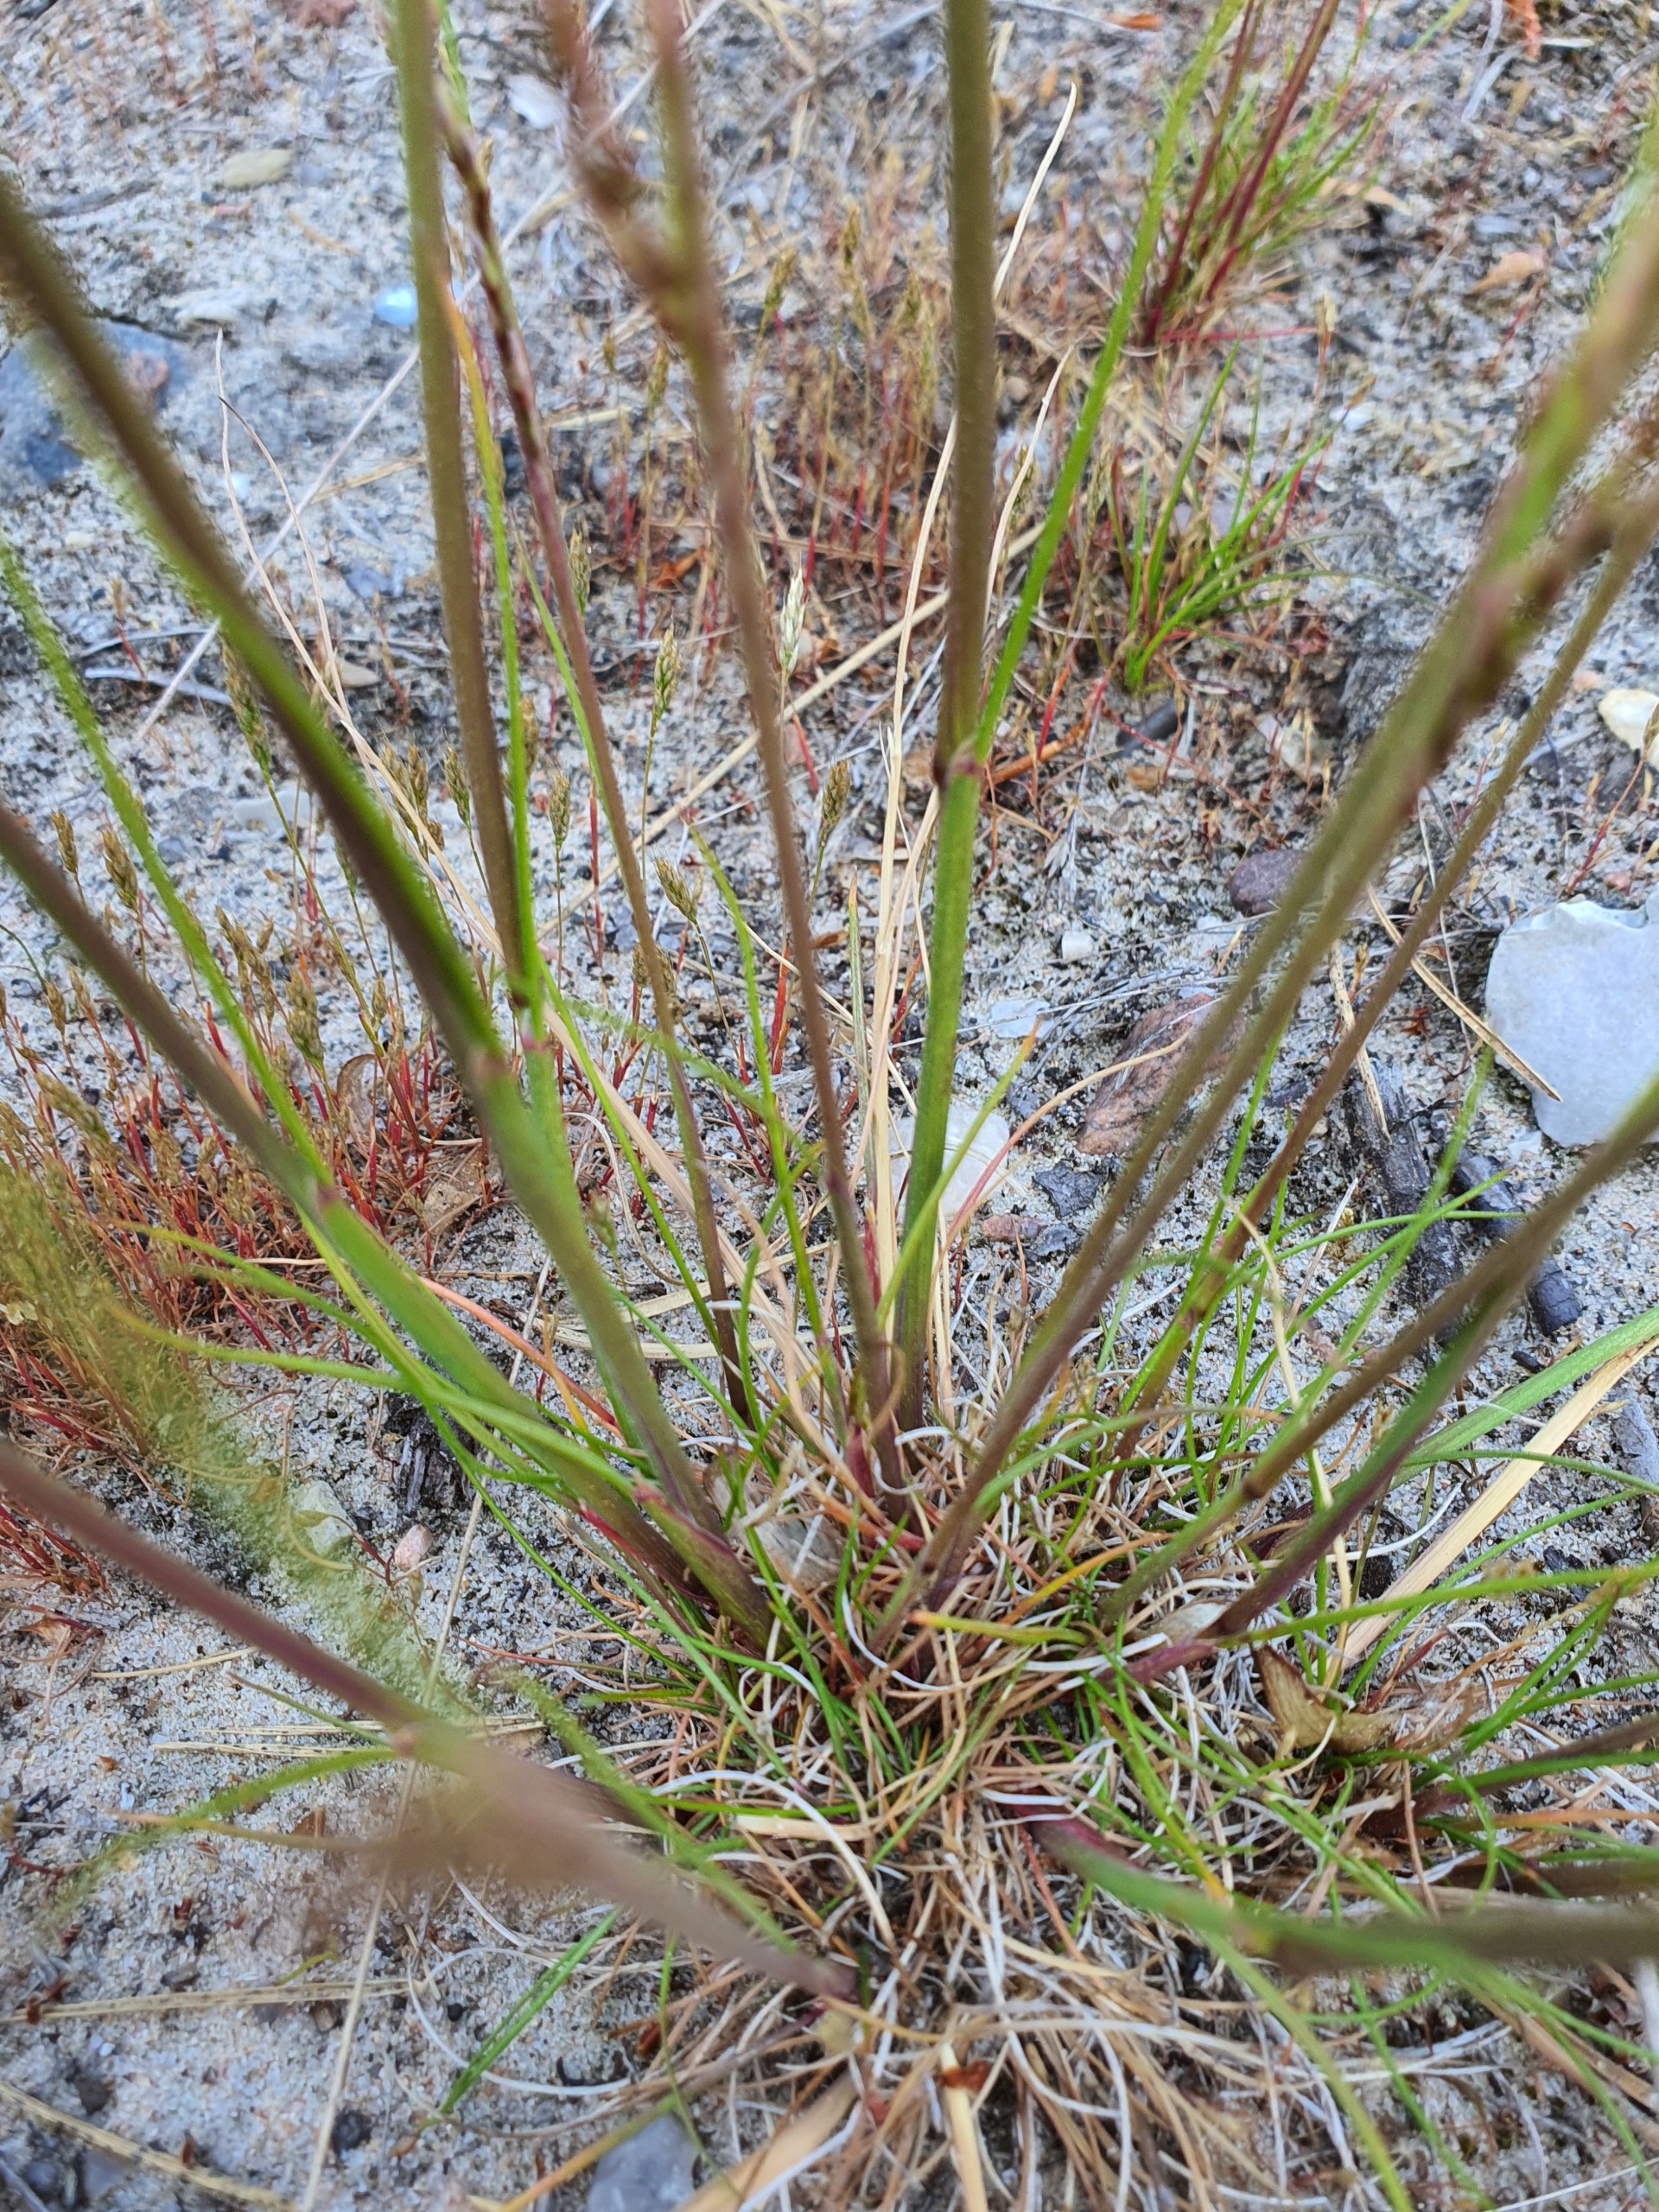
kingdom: Plantae
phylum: Tracheophyta
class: Liliopsida
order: Poales
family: Poaceae
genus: Avenella
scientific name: Avenella flexuosa
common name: Bølget bunke
